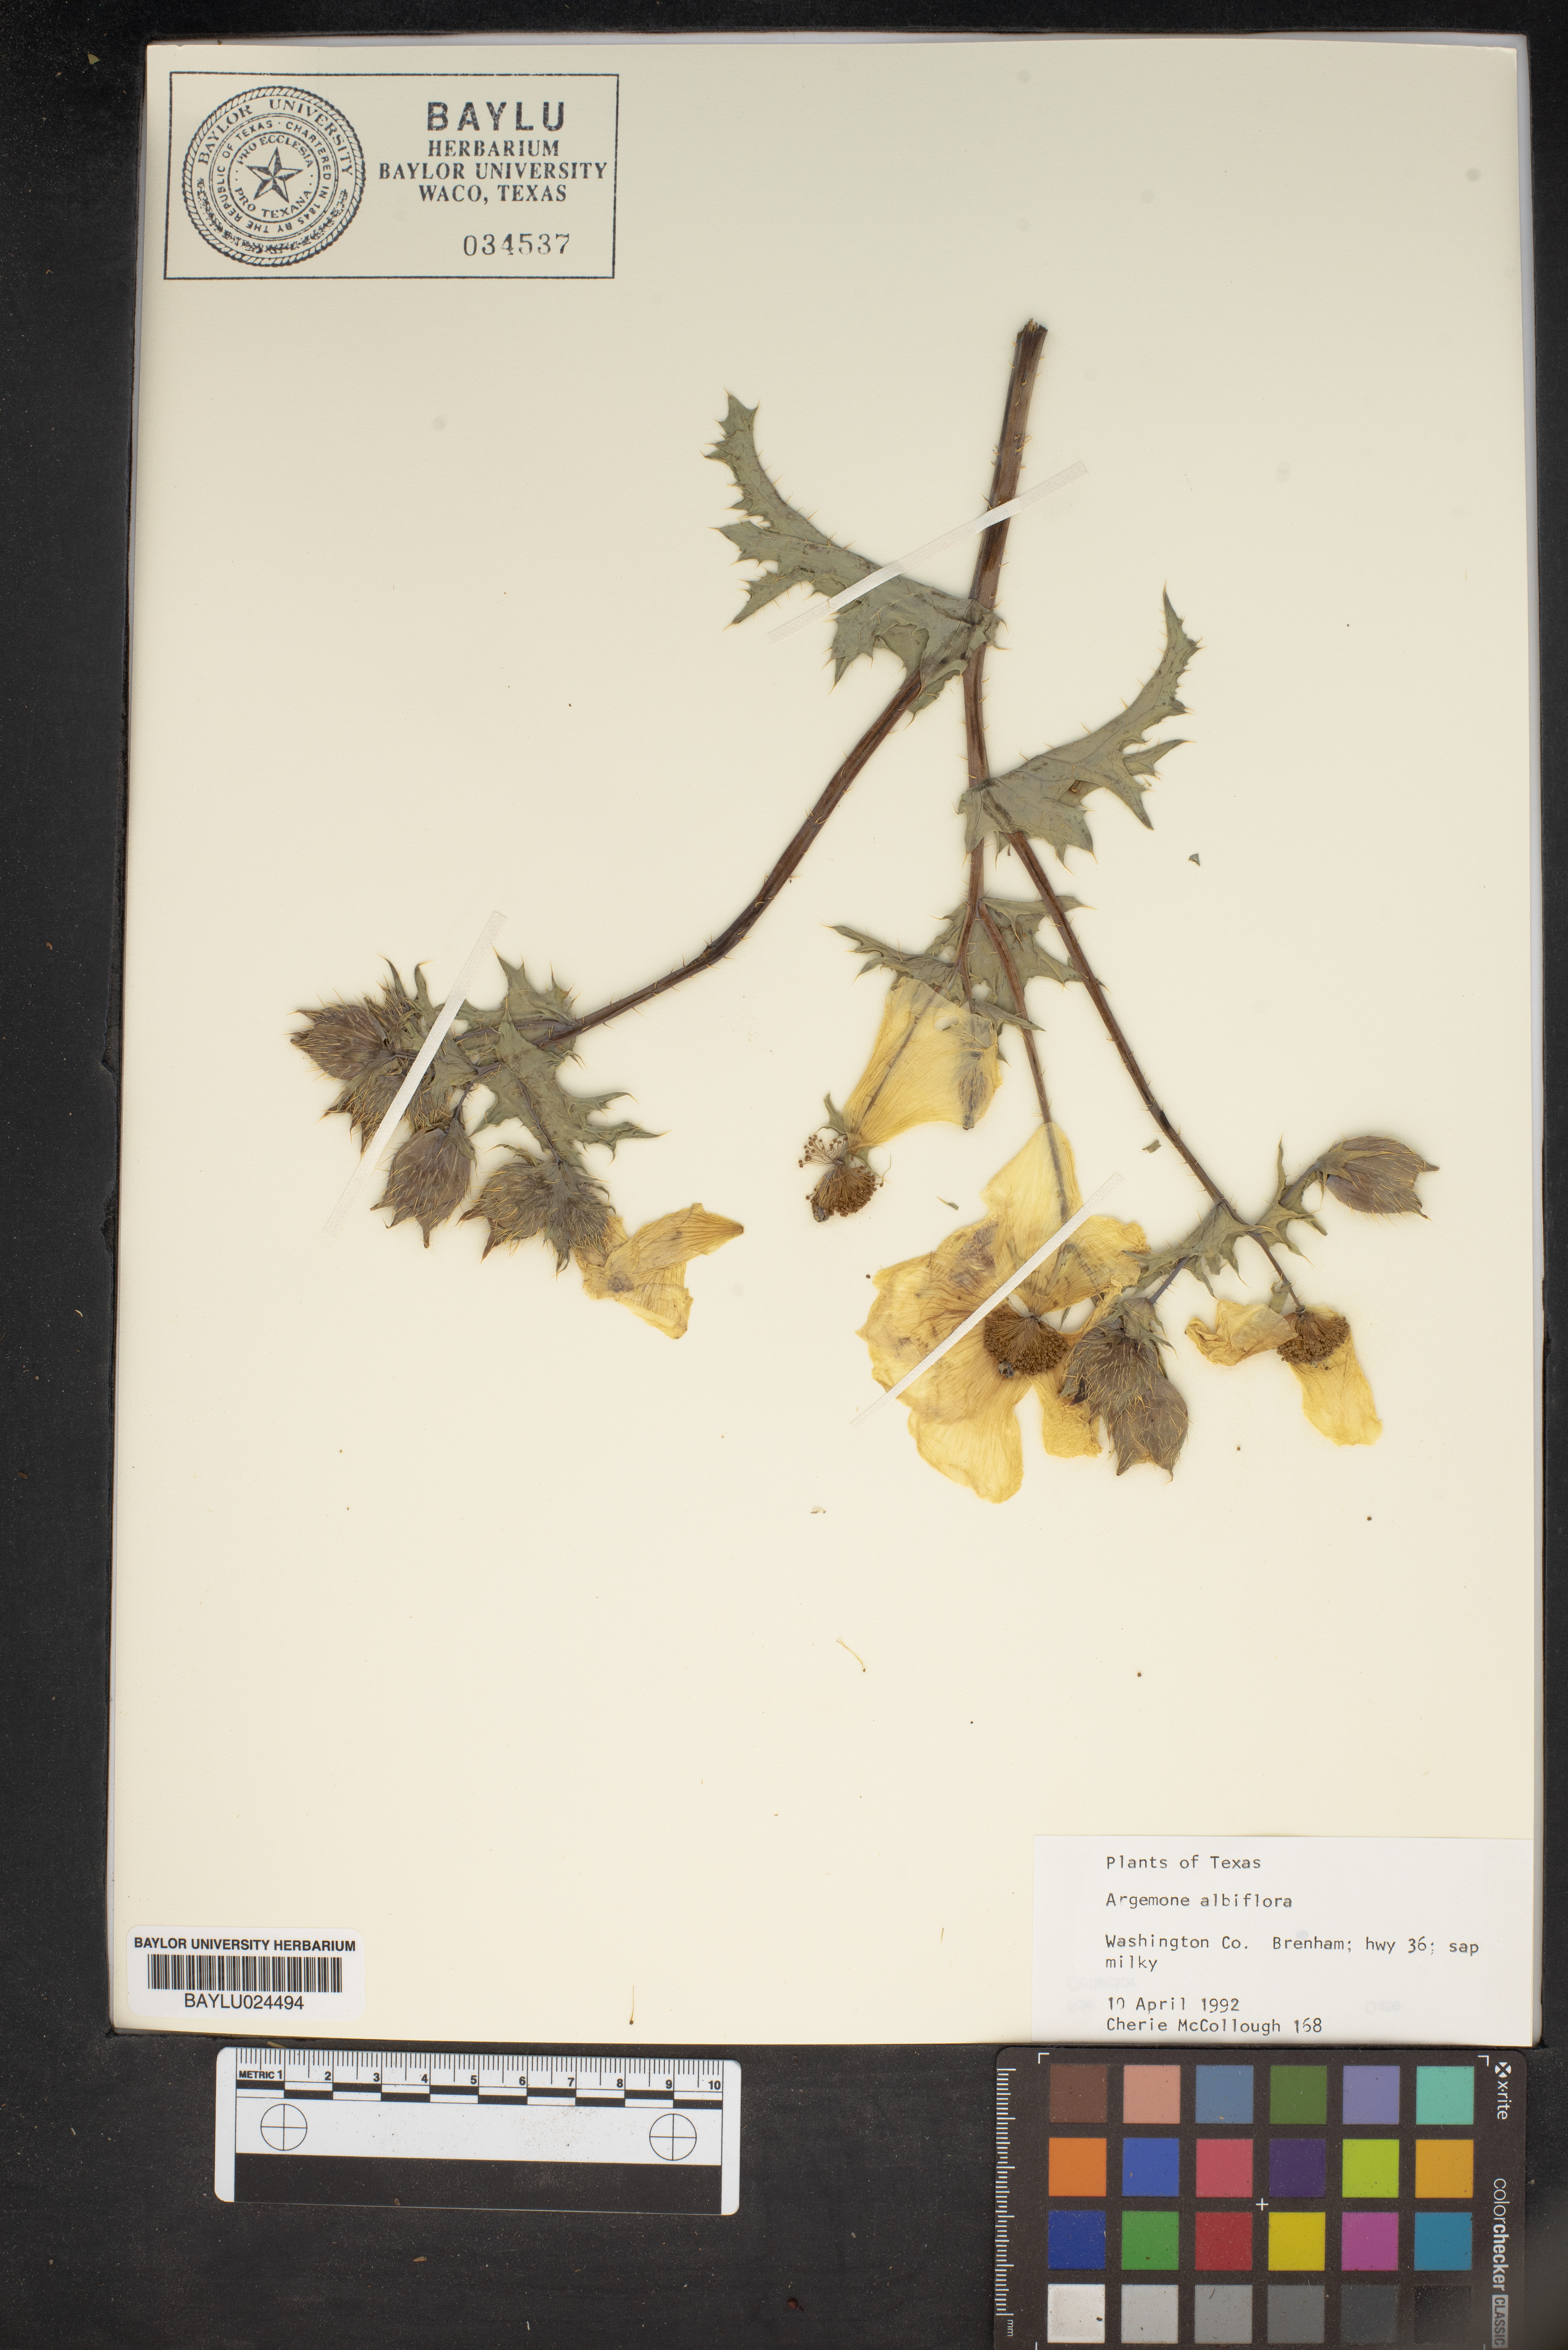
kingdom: Plantae
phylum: Tracheophyta
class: Magnoliopsida
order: Ranunculales
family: Papaveraceae
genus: Argemone
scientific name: Argemone albiflora
